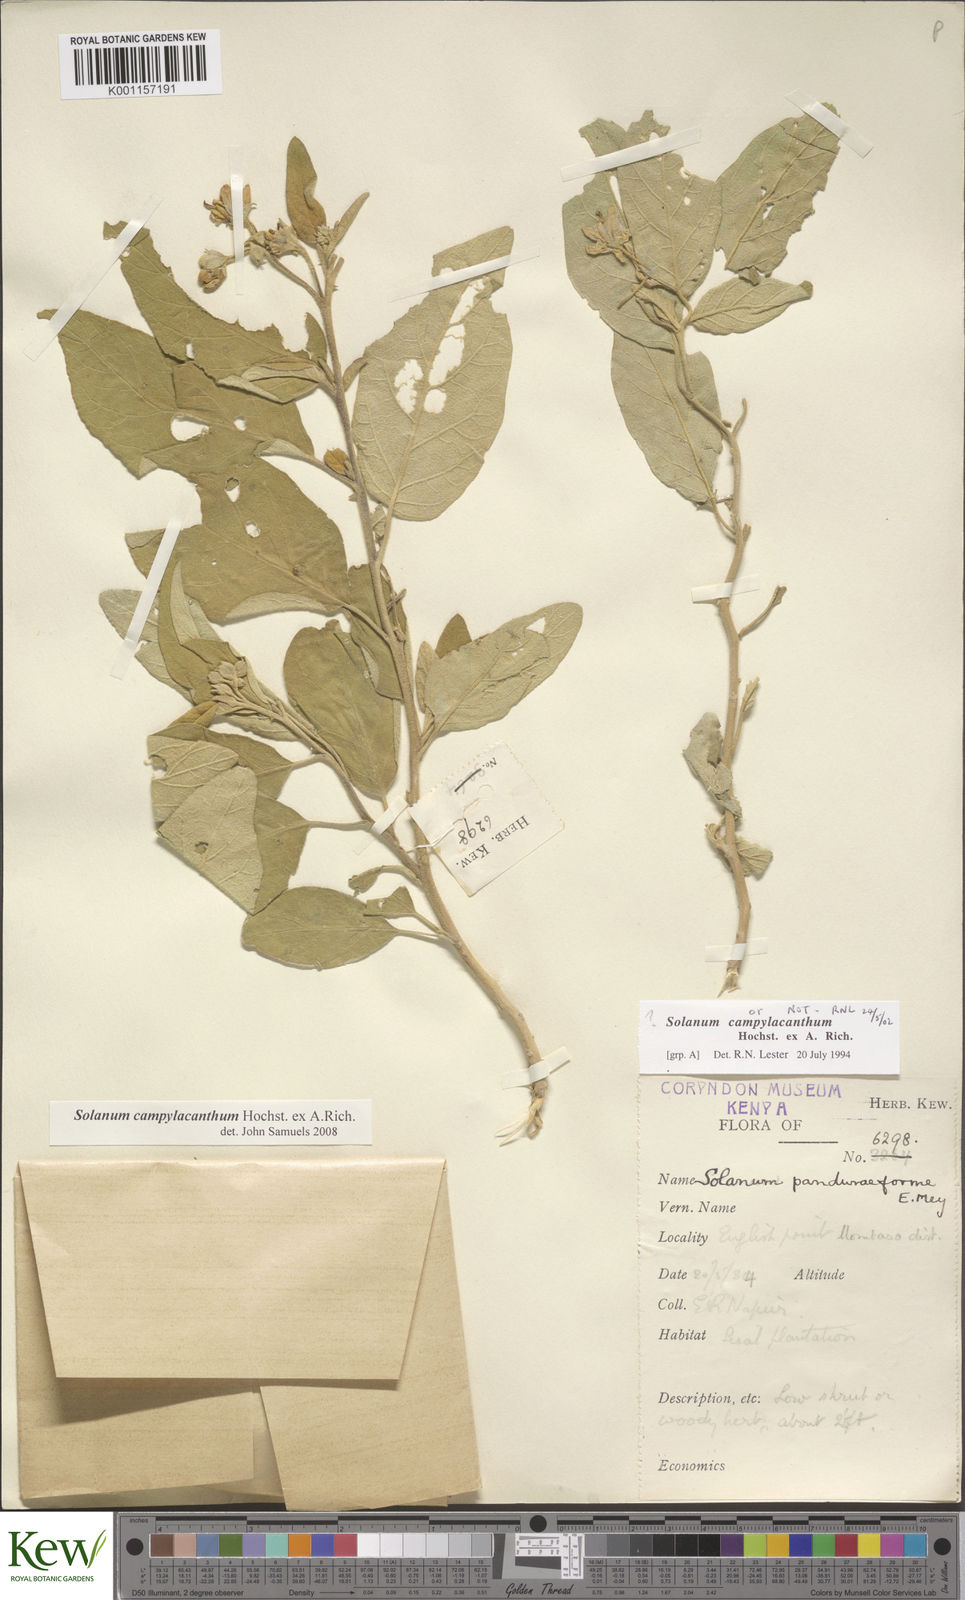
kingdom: Plantae
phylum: Tracheophyta
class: Magnoliopsida
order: Solanales
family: Solanaceae
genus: Solanum
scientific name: Solanum campylacanthum
